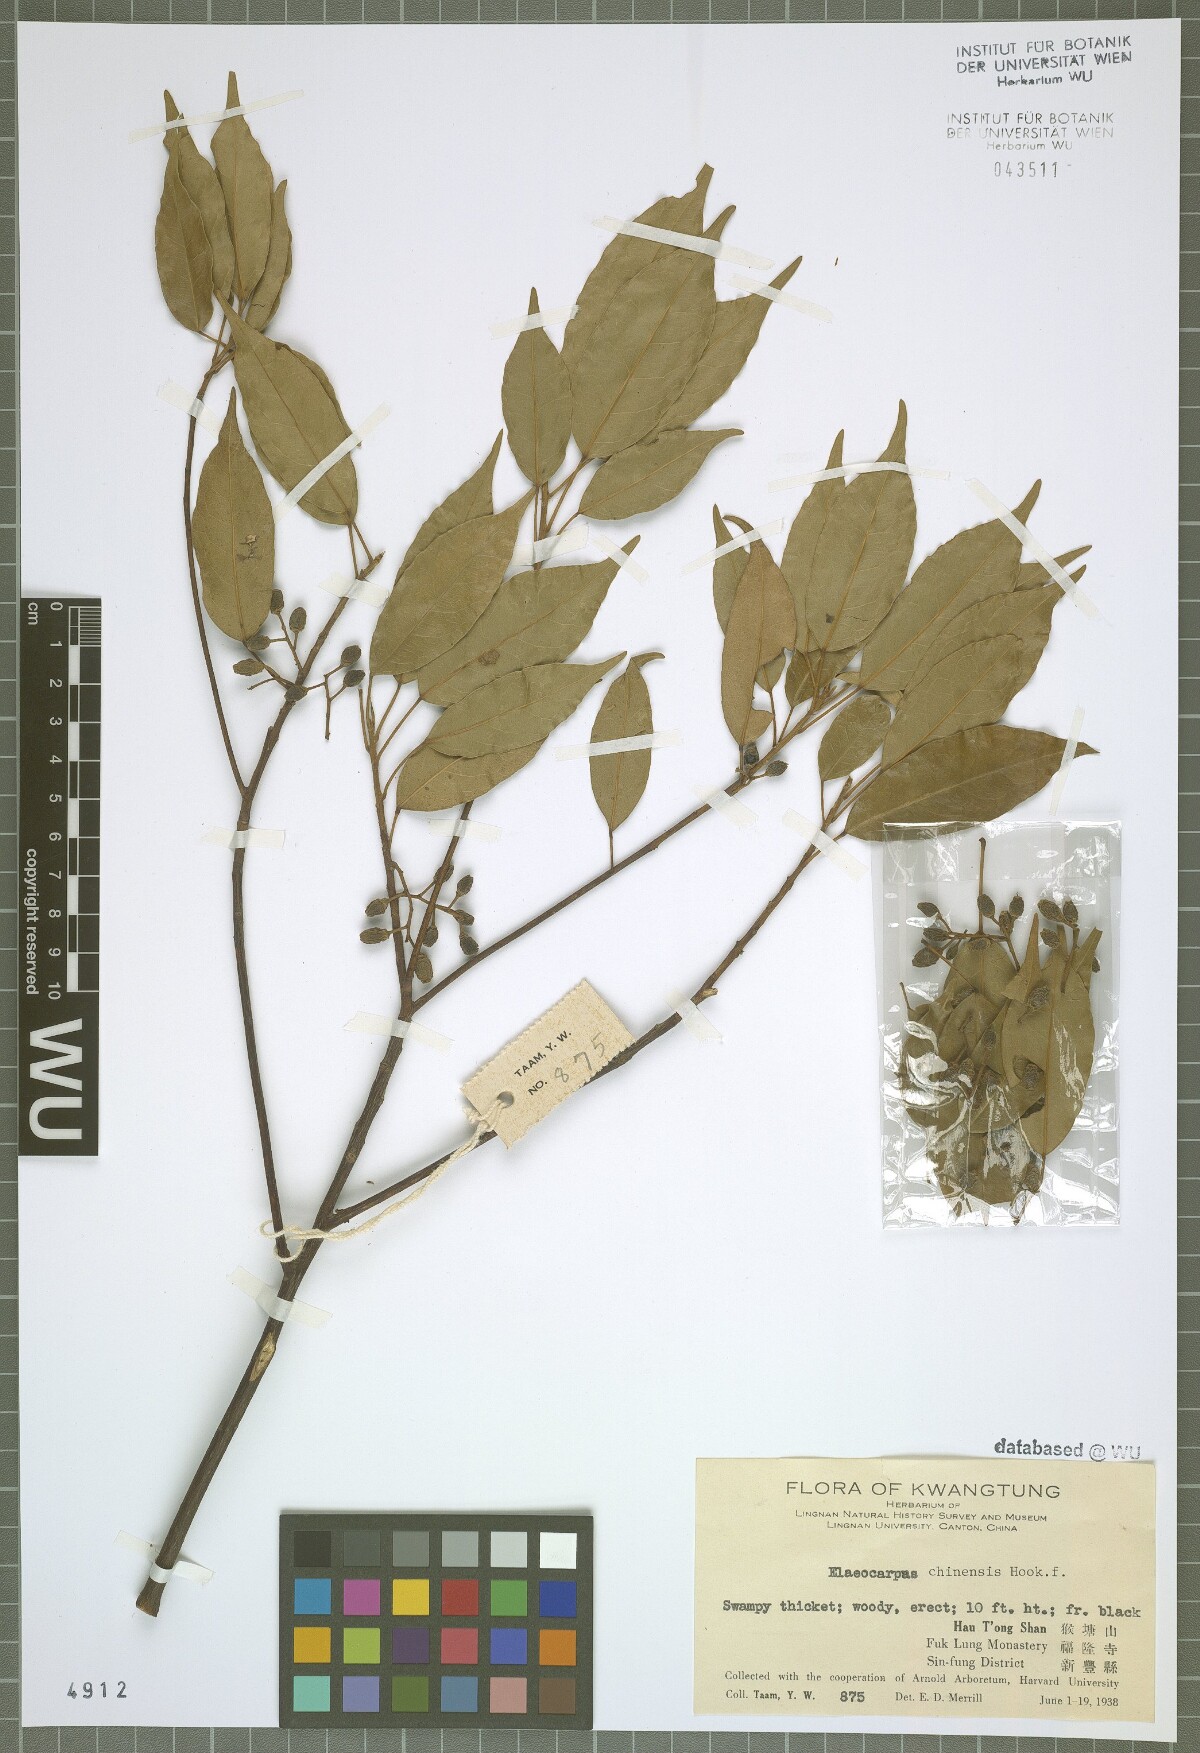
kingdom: Plantae
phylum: Tracheophyta
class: Magnoliopsida
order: Oxalidales
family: Elaeocarpaceae
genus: Elaeocarpus
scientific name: Elaeocarpus chinensis
